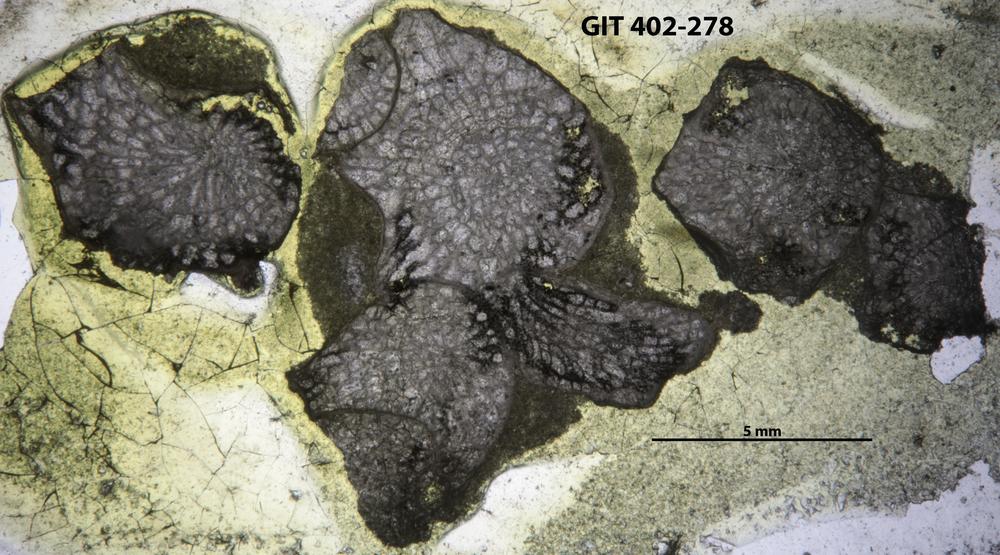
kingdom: Animalia
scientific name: Animalia
